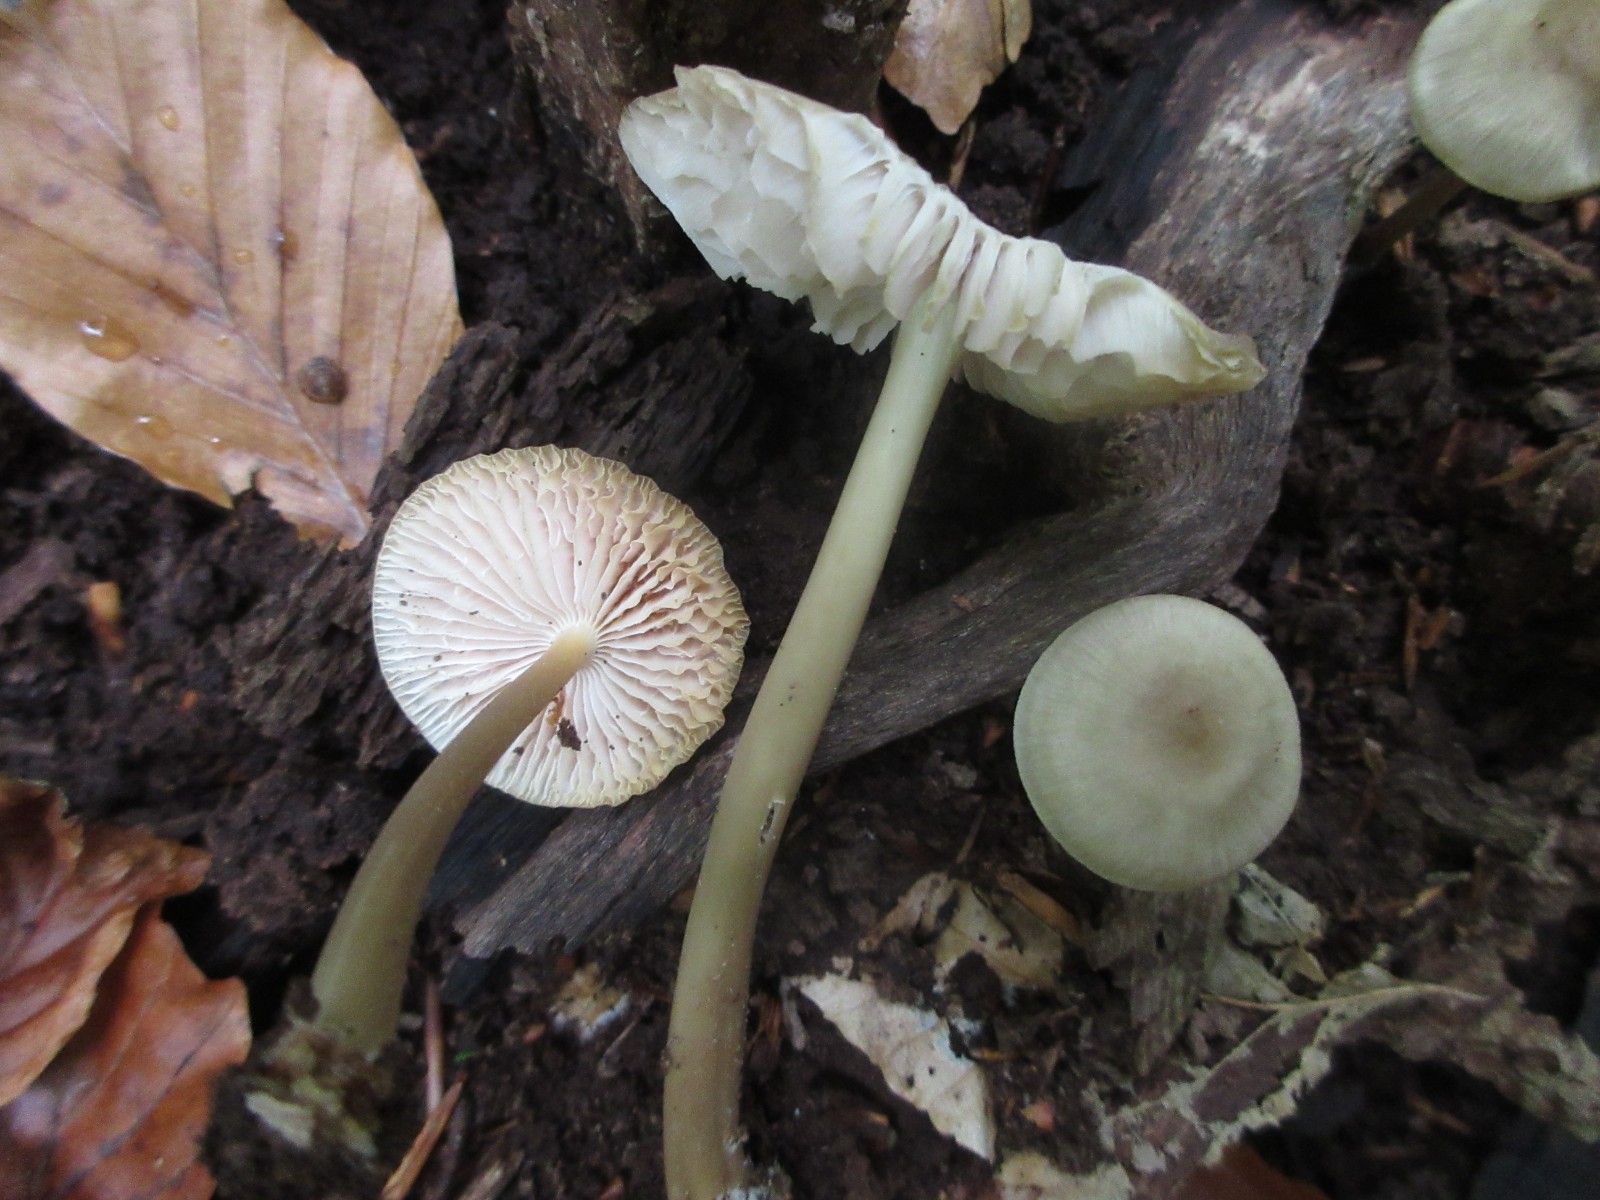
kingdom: Fungi
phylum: Basidiomycota
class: Agaricomycetes
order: Agaricales
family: Mycenaceae
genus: Mycena
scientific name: Mycena galericulata
